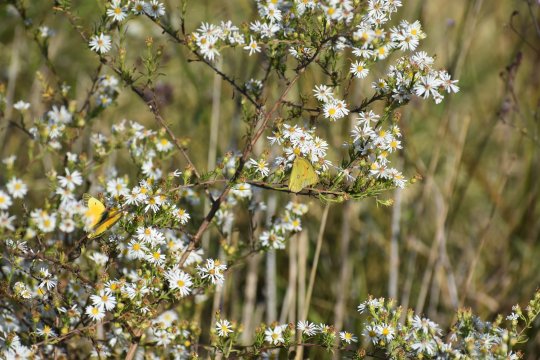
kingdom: Animalia
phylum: Arthropoda
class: Insecta
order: Lepidoptera
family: Pieridae
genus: Colias
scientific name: Colias eurytheme
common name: Orange Sulphur
